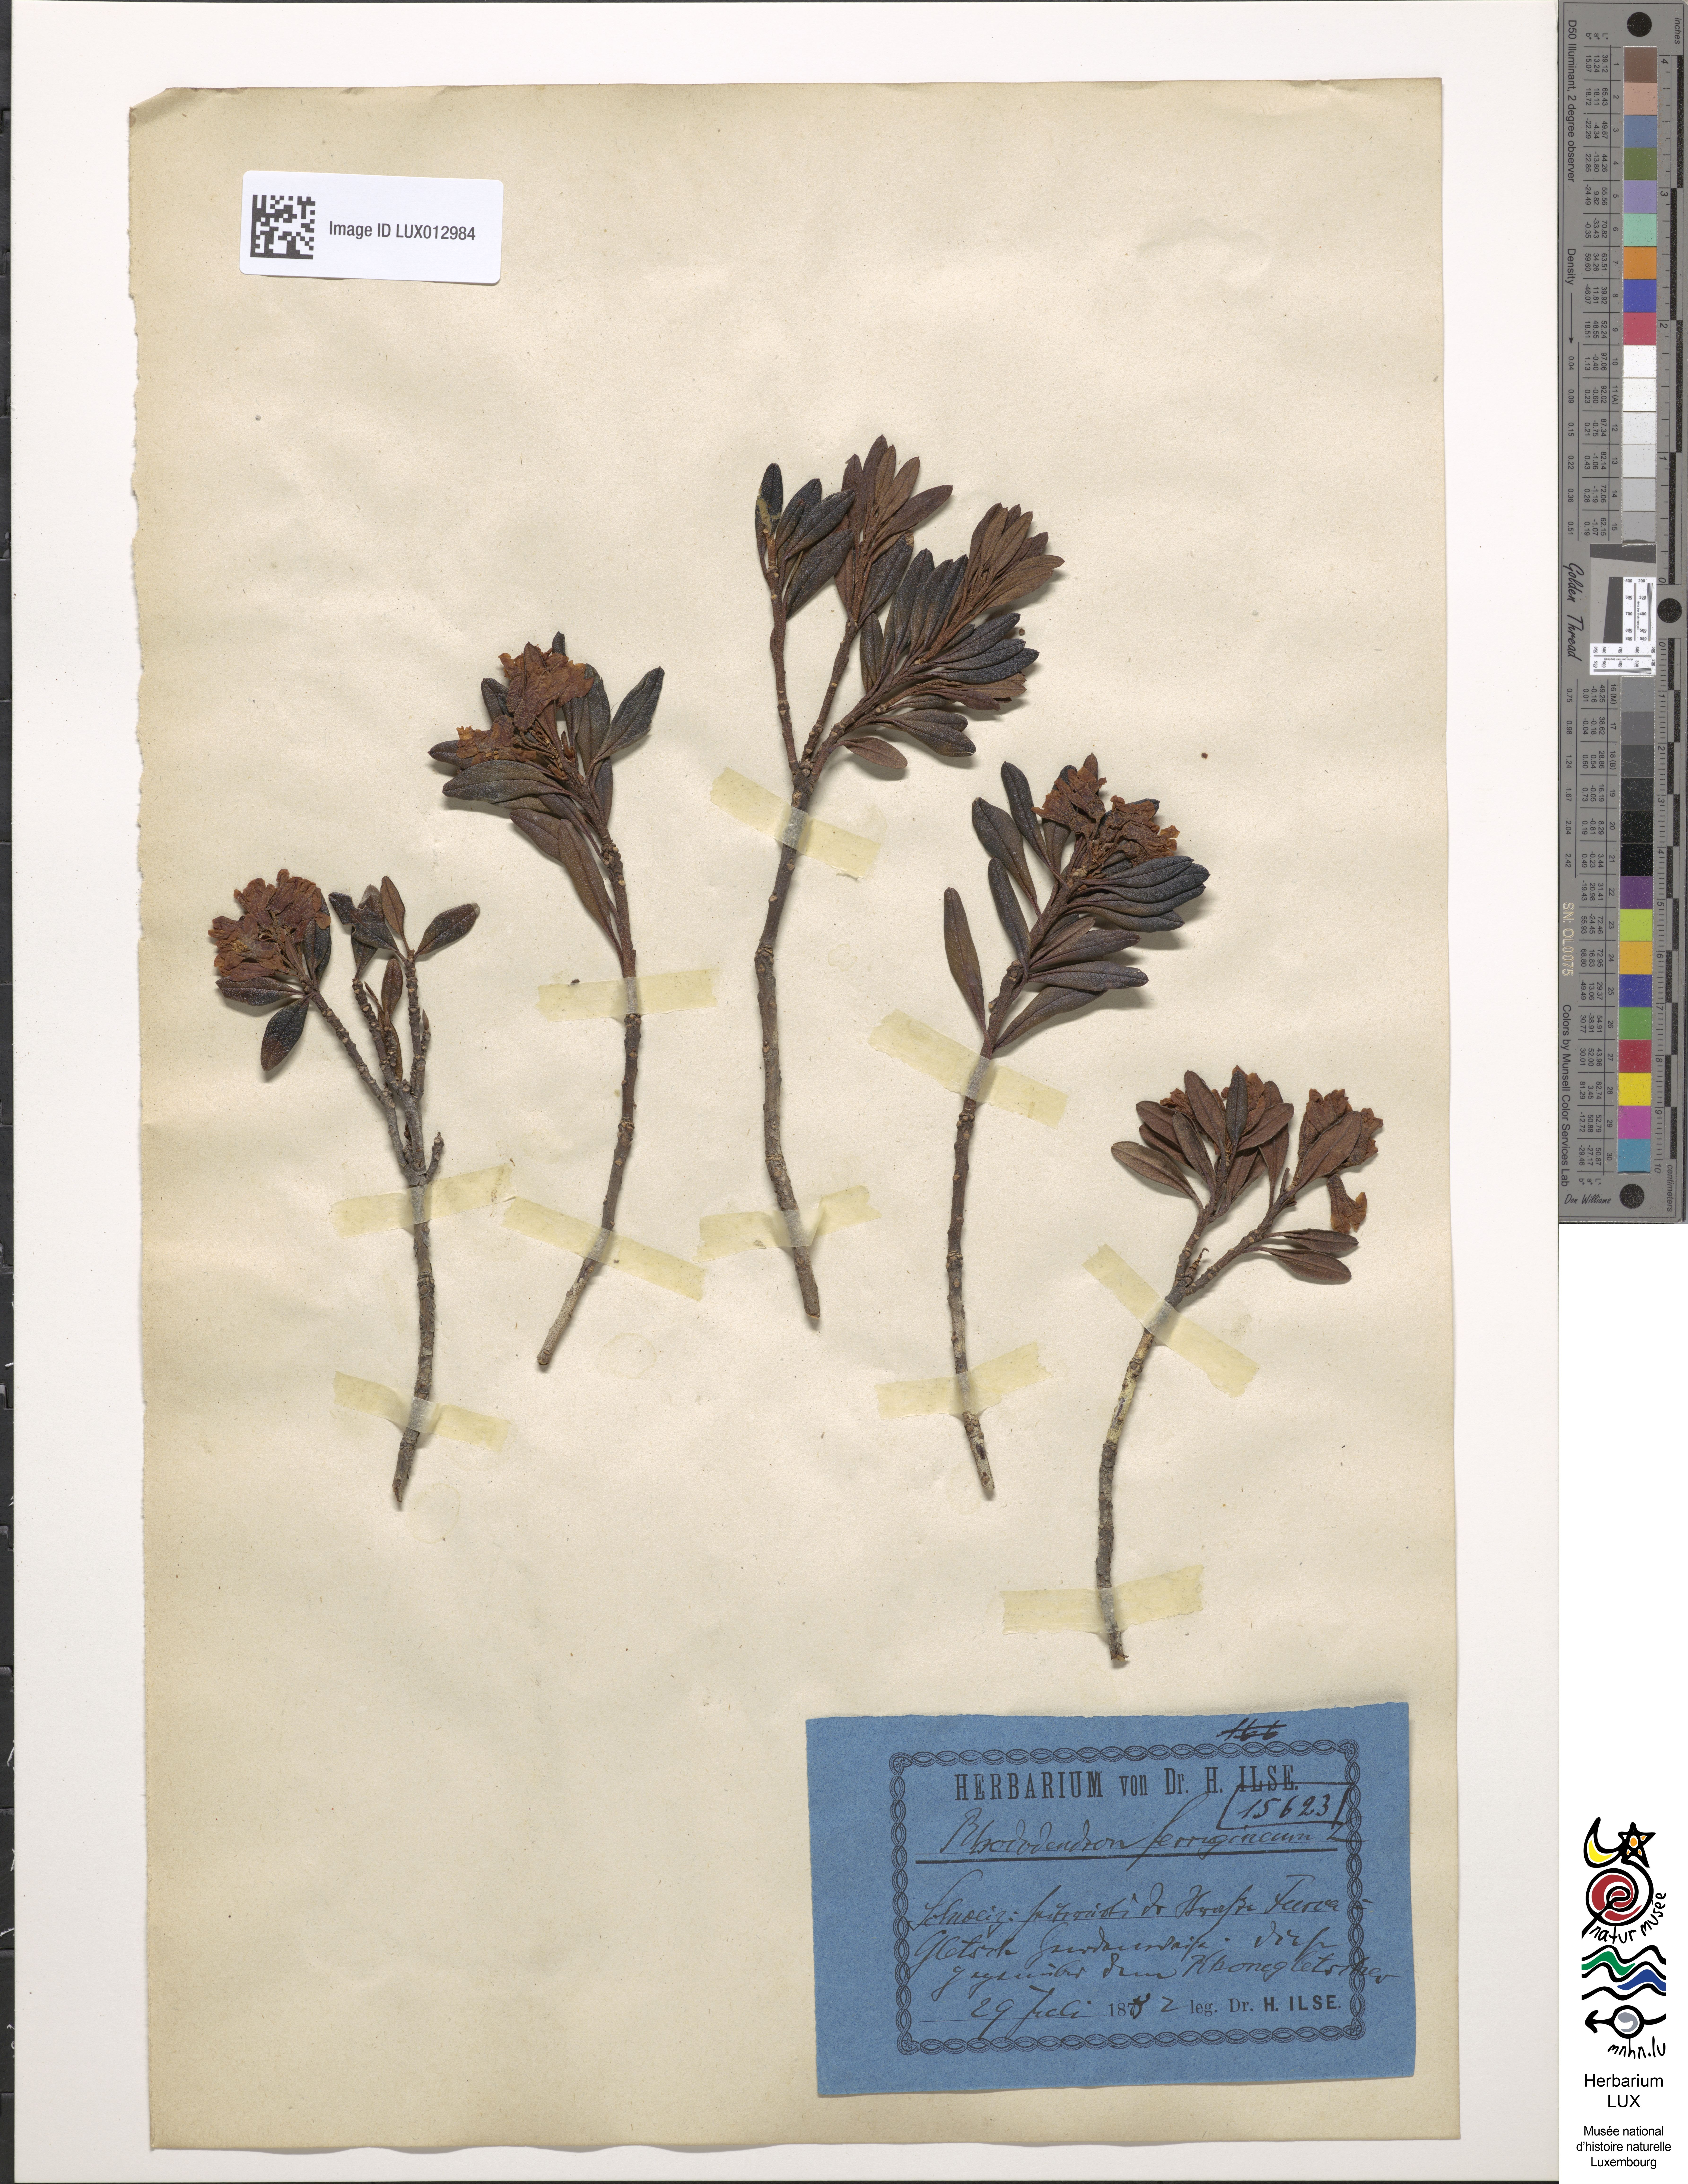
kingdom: Plantae
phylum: Tracheophyta
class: Magnoliopsida
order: Ericales
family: Ericaceae
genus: Rhododendron
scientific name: Rhododendron ferrugineum
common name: Alpenrose
